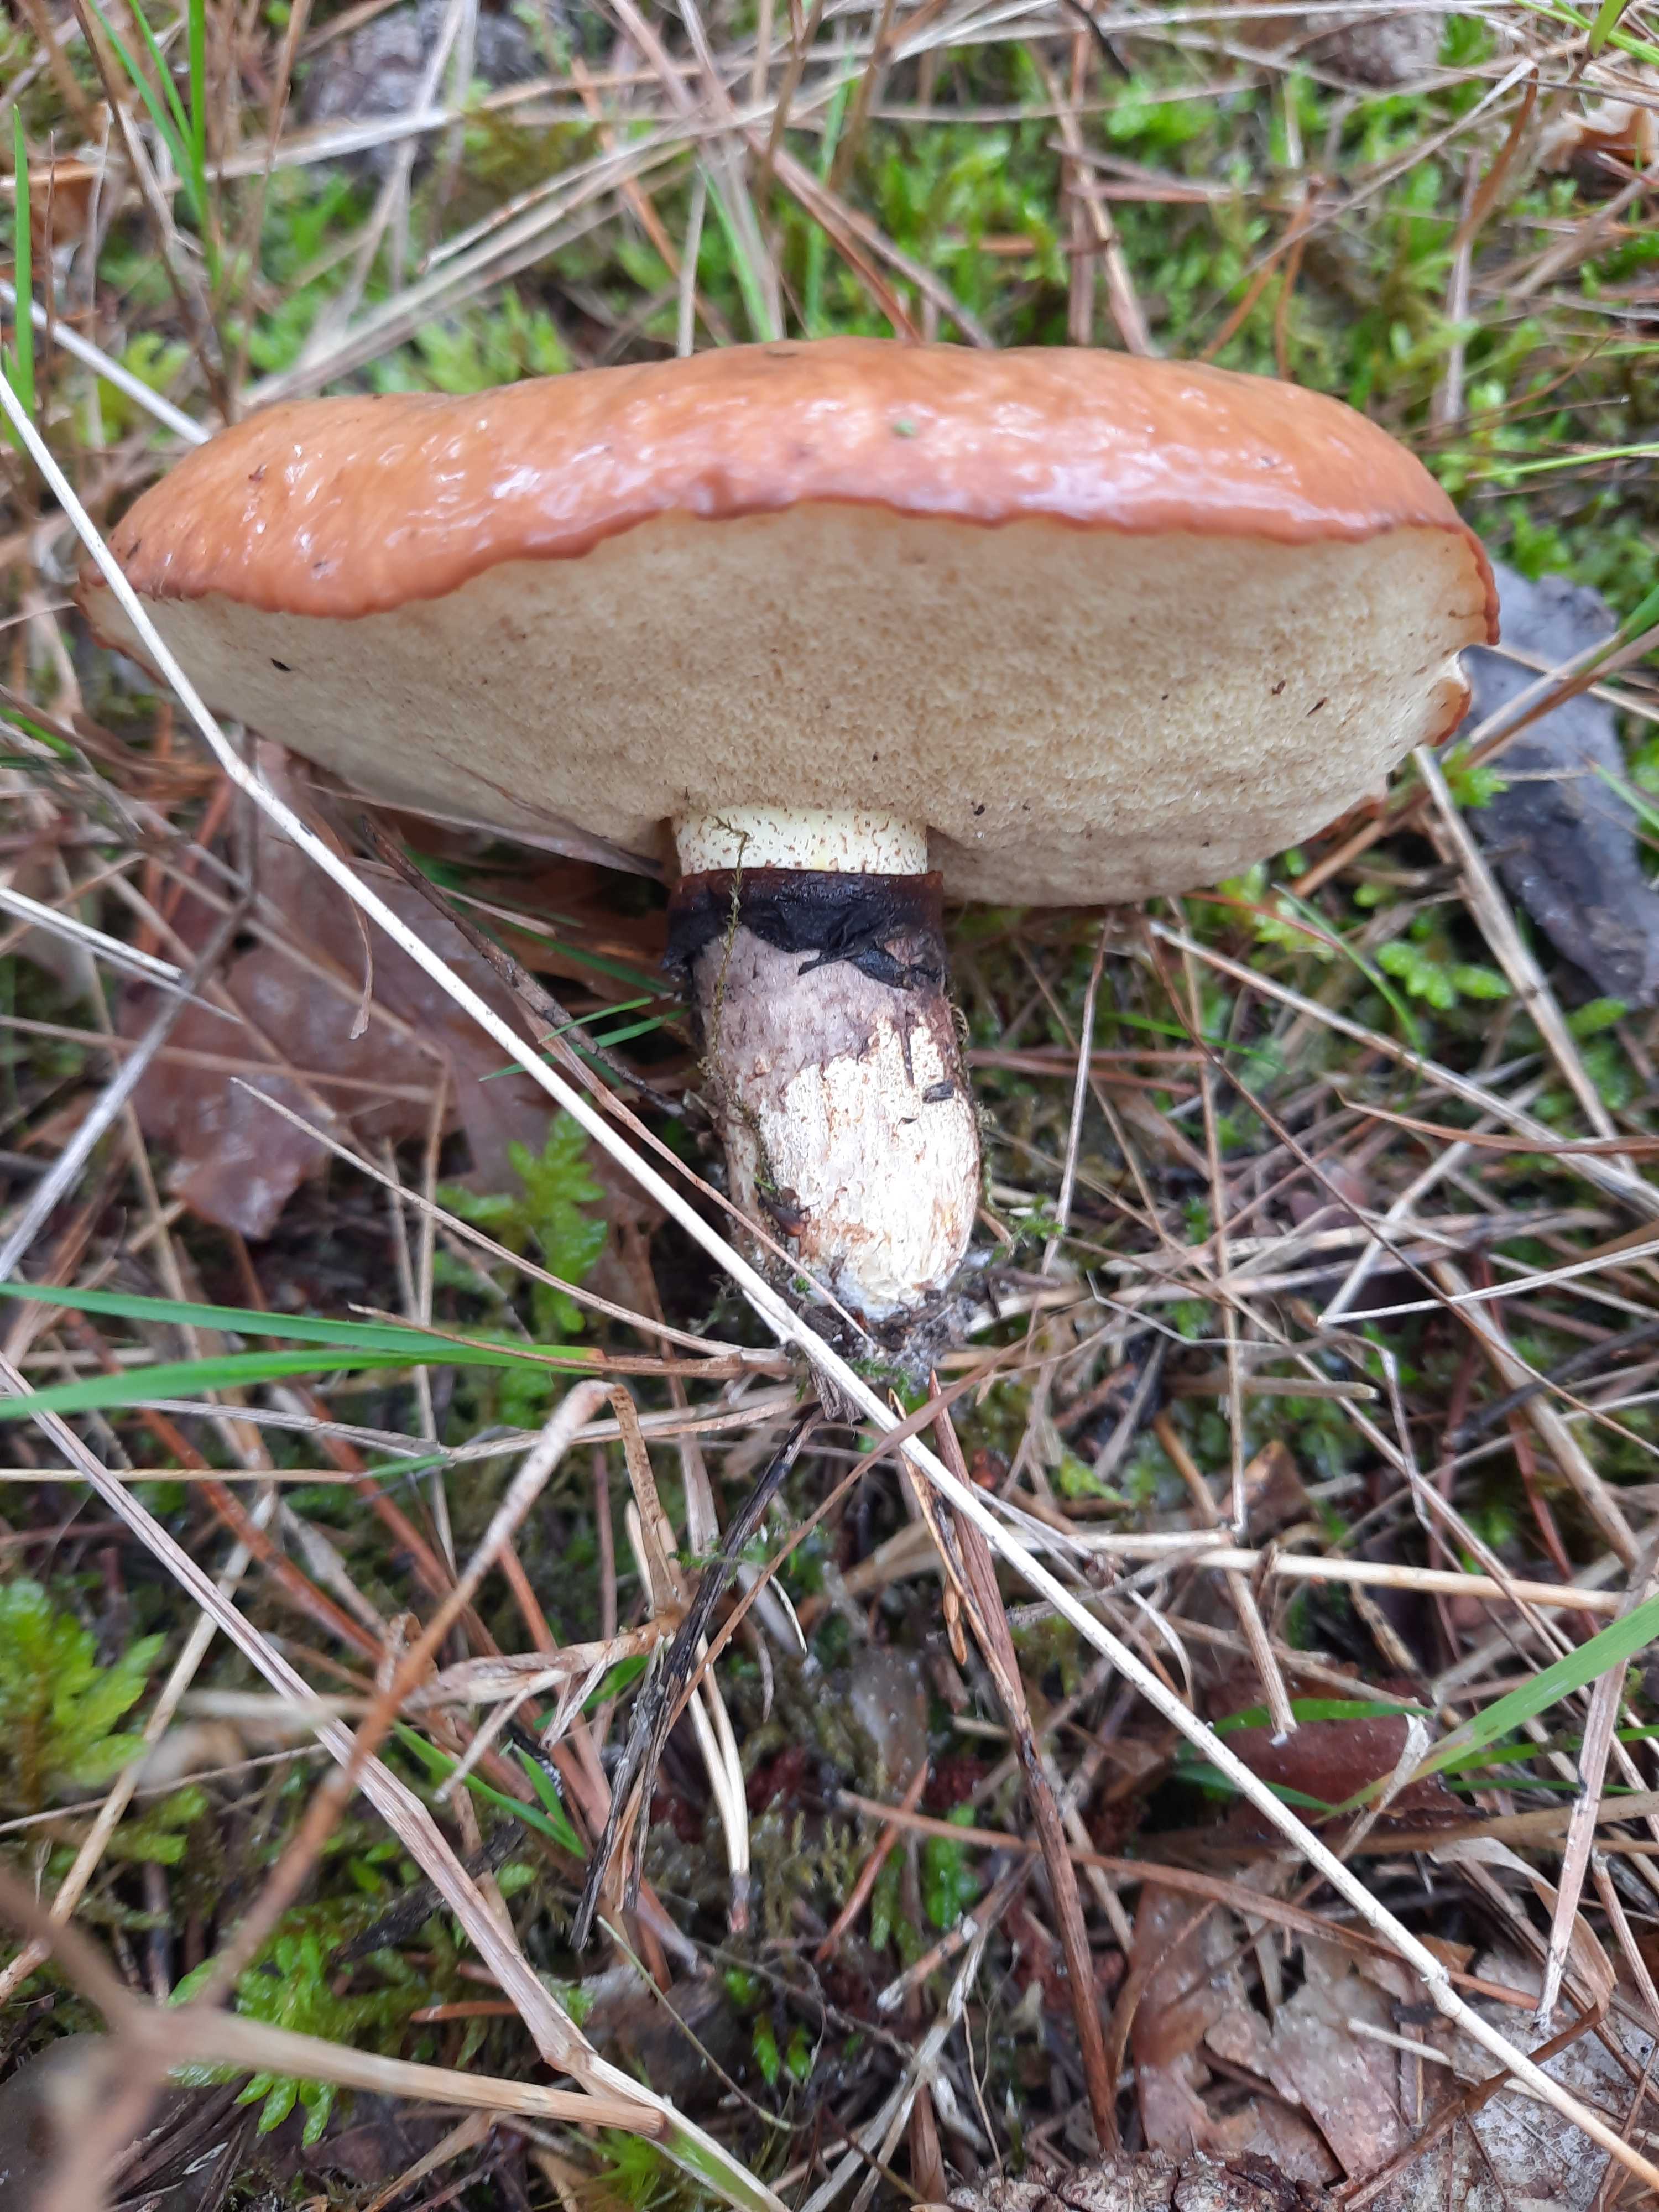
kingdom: Fungi
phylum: Basidiomycota
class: Agaricomycetes
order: Boletales
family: Suillaceae
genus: Suillus
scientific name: Suillus luteus
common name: brungul slimrørhat
